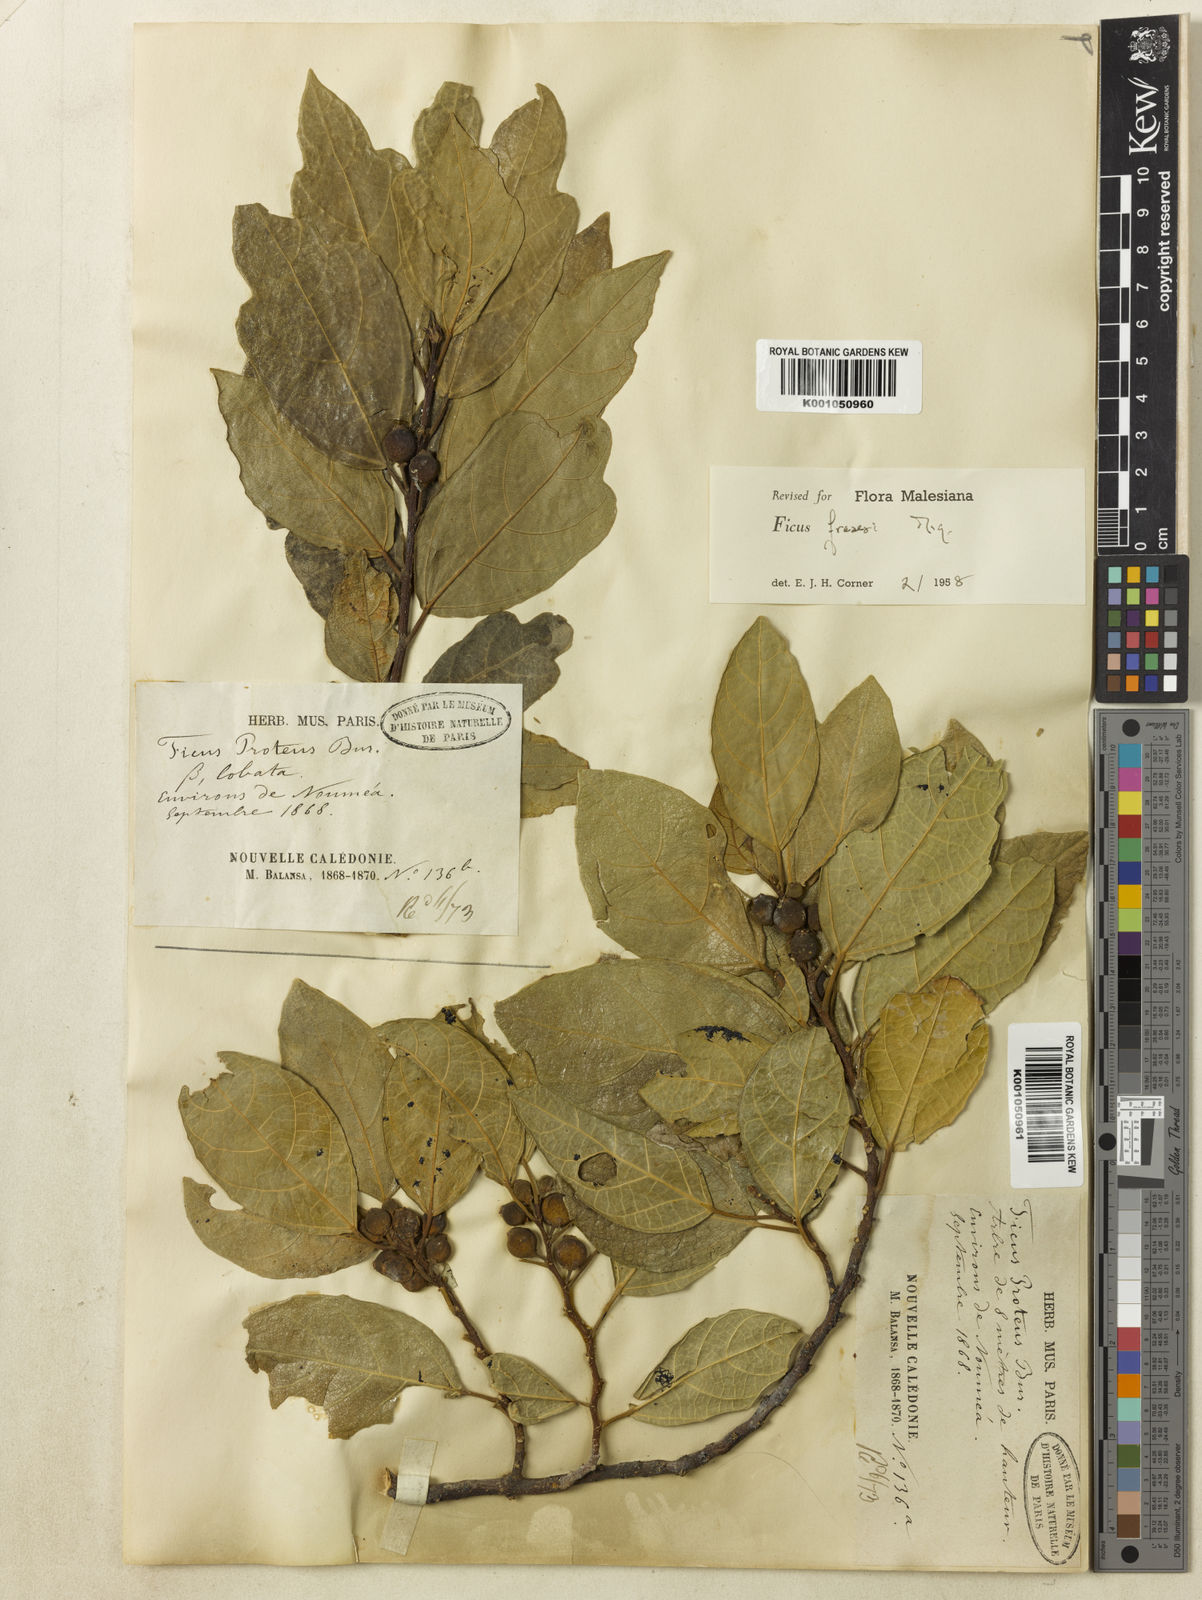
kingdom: Plantae
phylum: Tracheophyta
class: Magnoliopsida
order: Rosales
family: Moraceae
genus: Ficus
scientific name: Ficus fraseri
